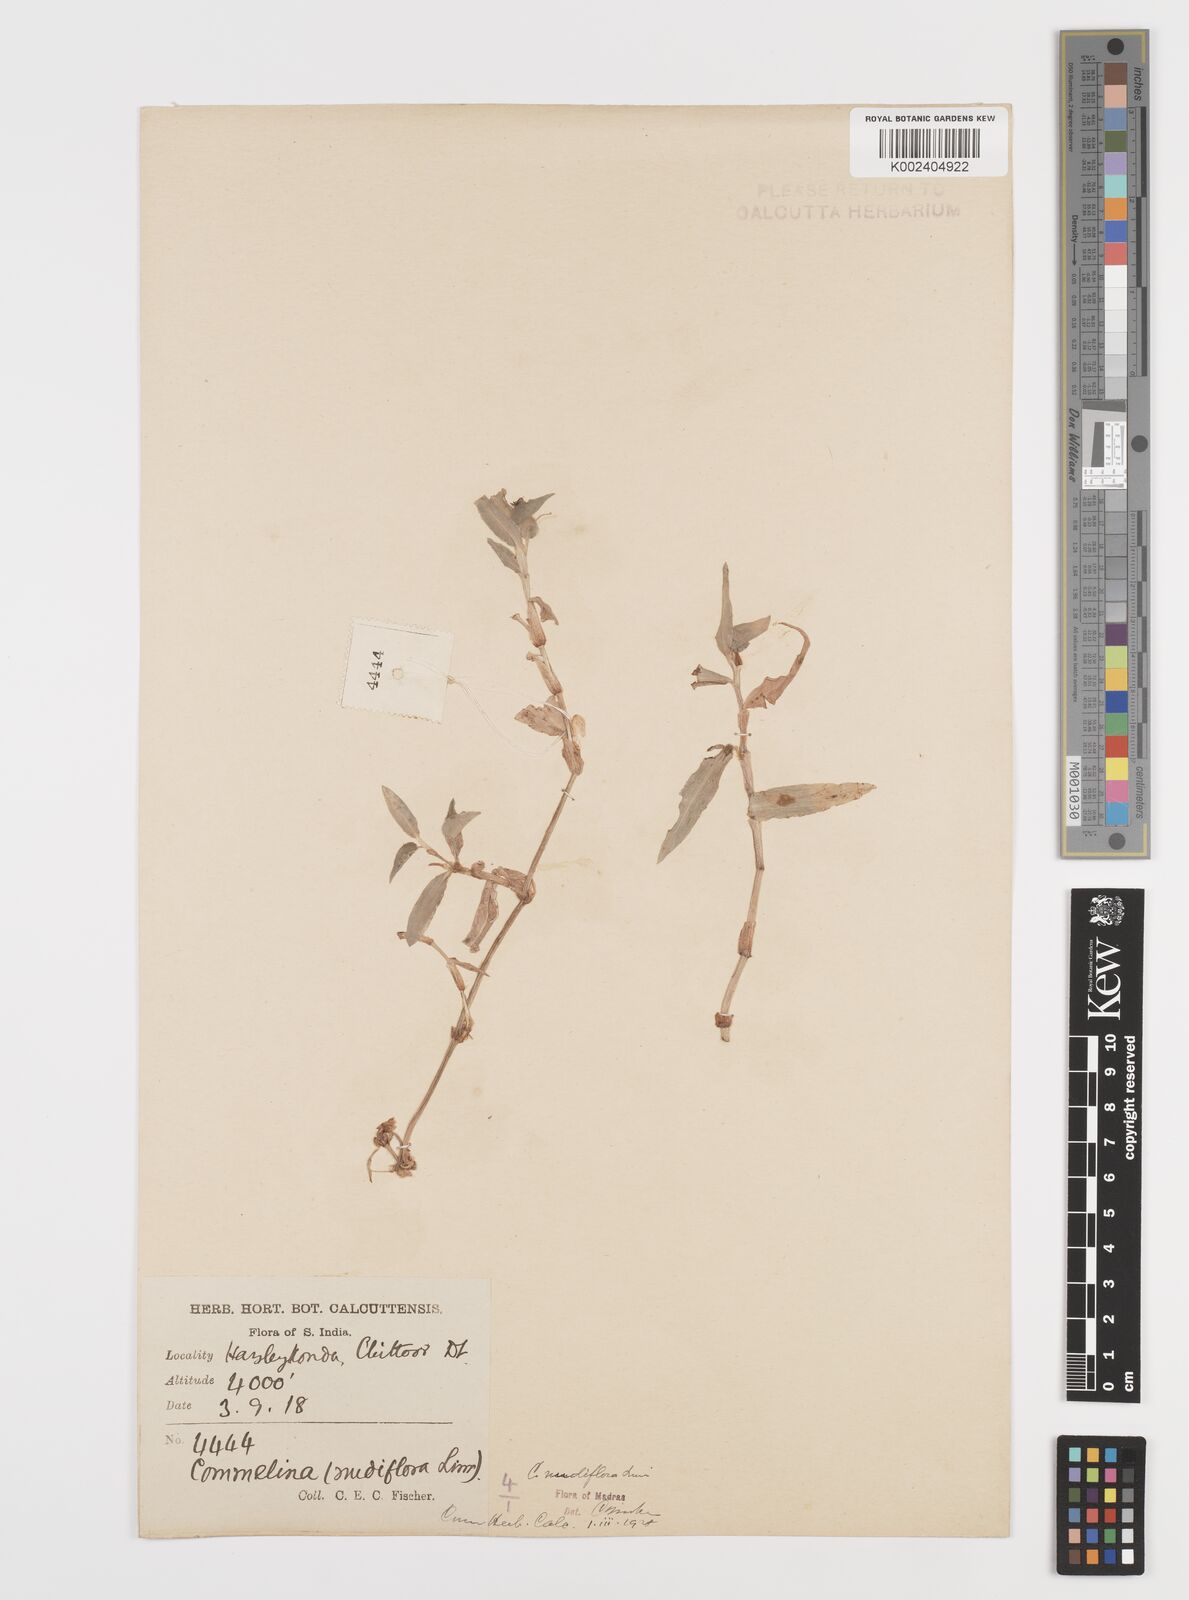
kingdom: Plantae
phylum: Tracheophyta
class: Liliopsida
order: Commelinales
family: Commelinaceae
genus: Commelina
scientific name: Commelina diffusa
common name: Climbing dayflower
